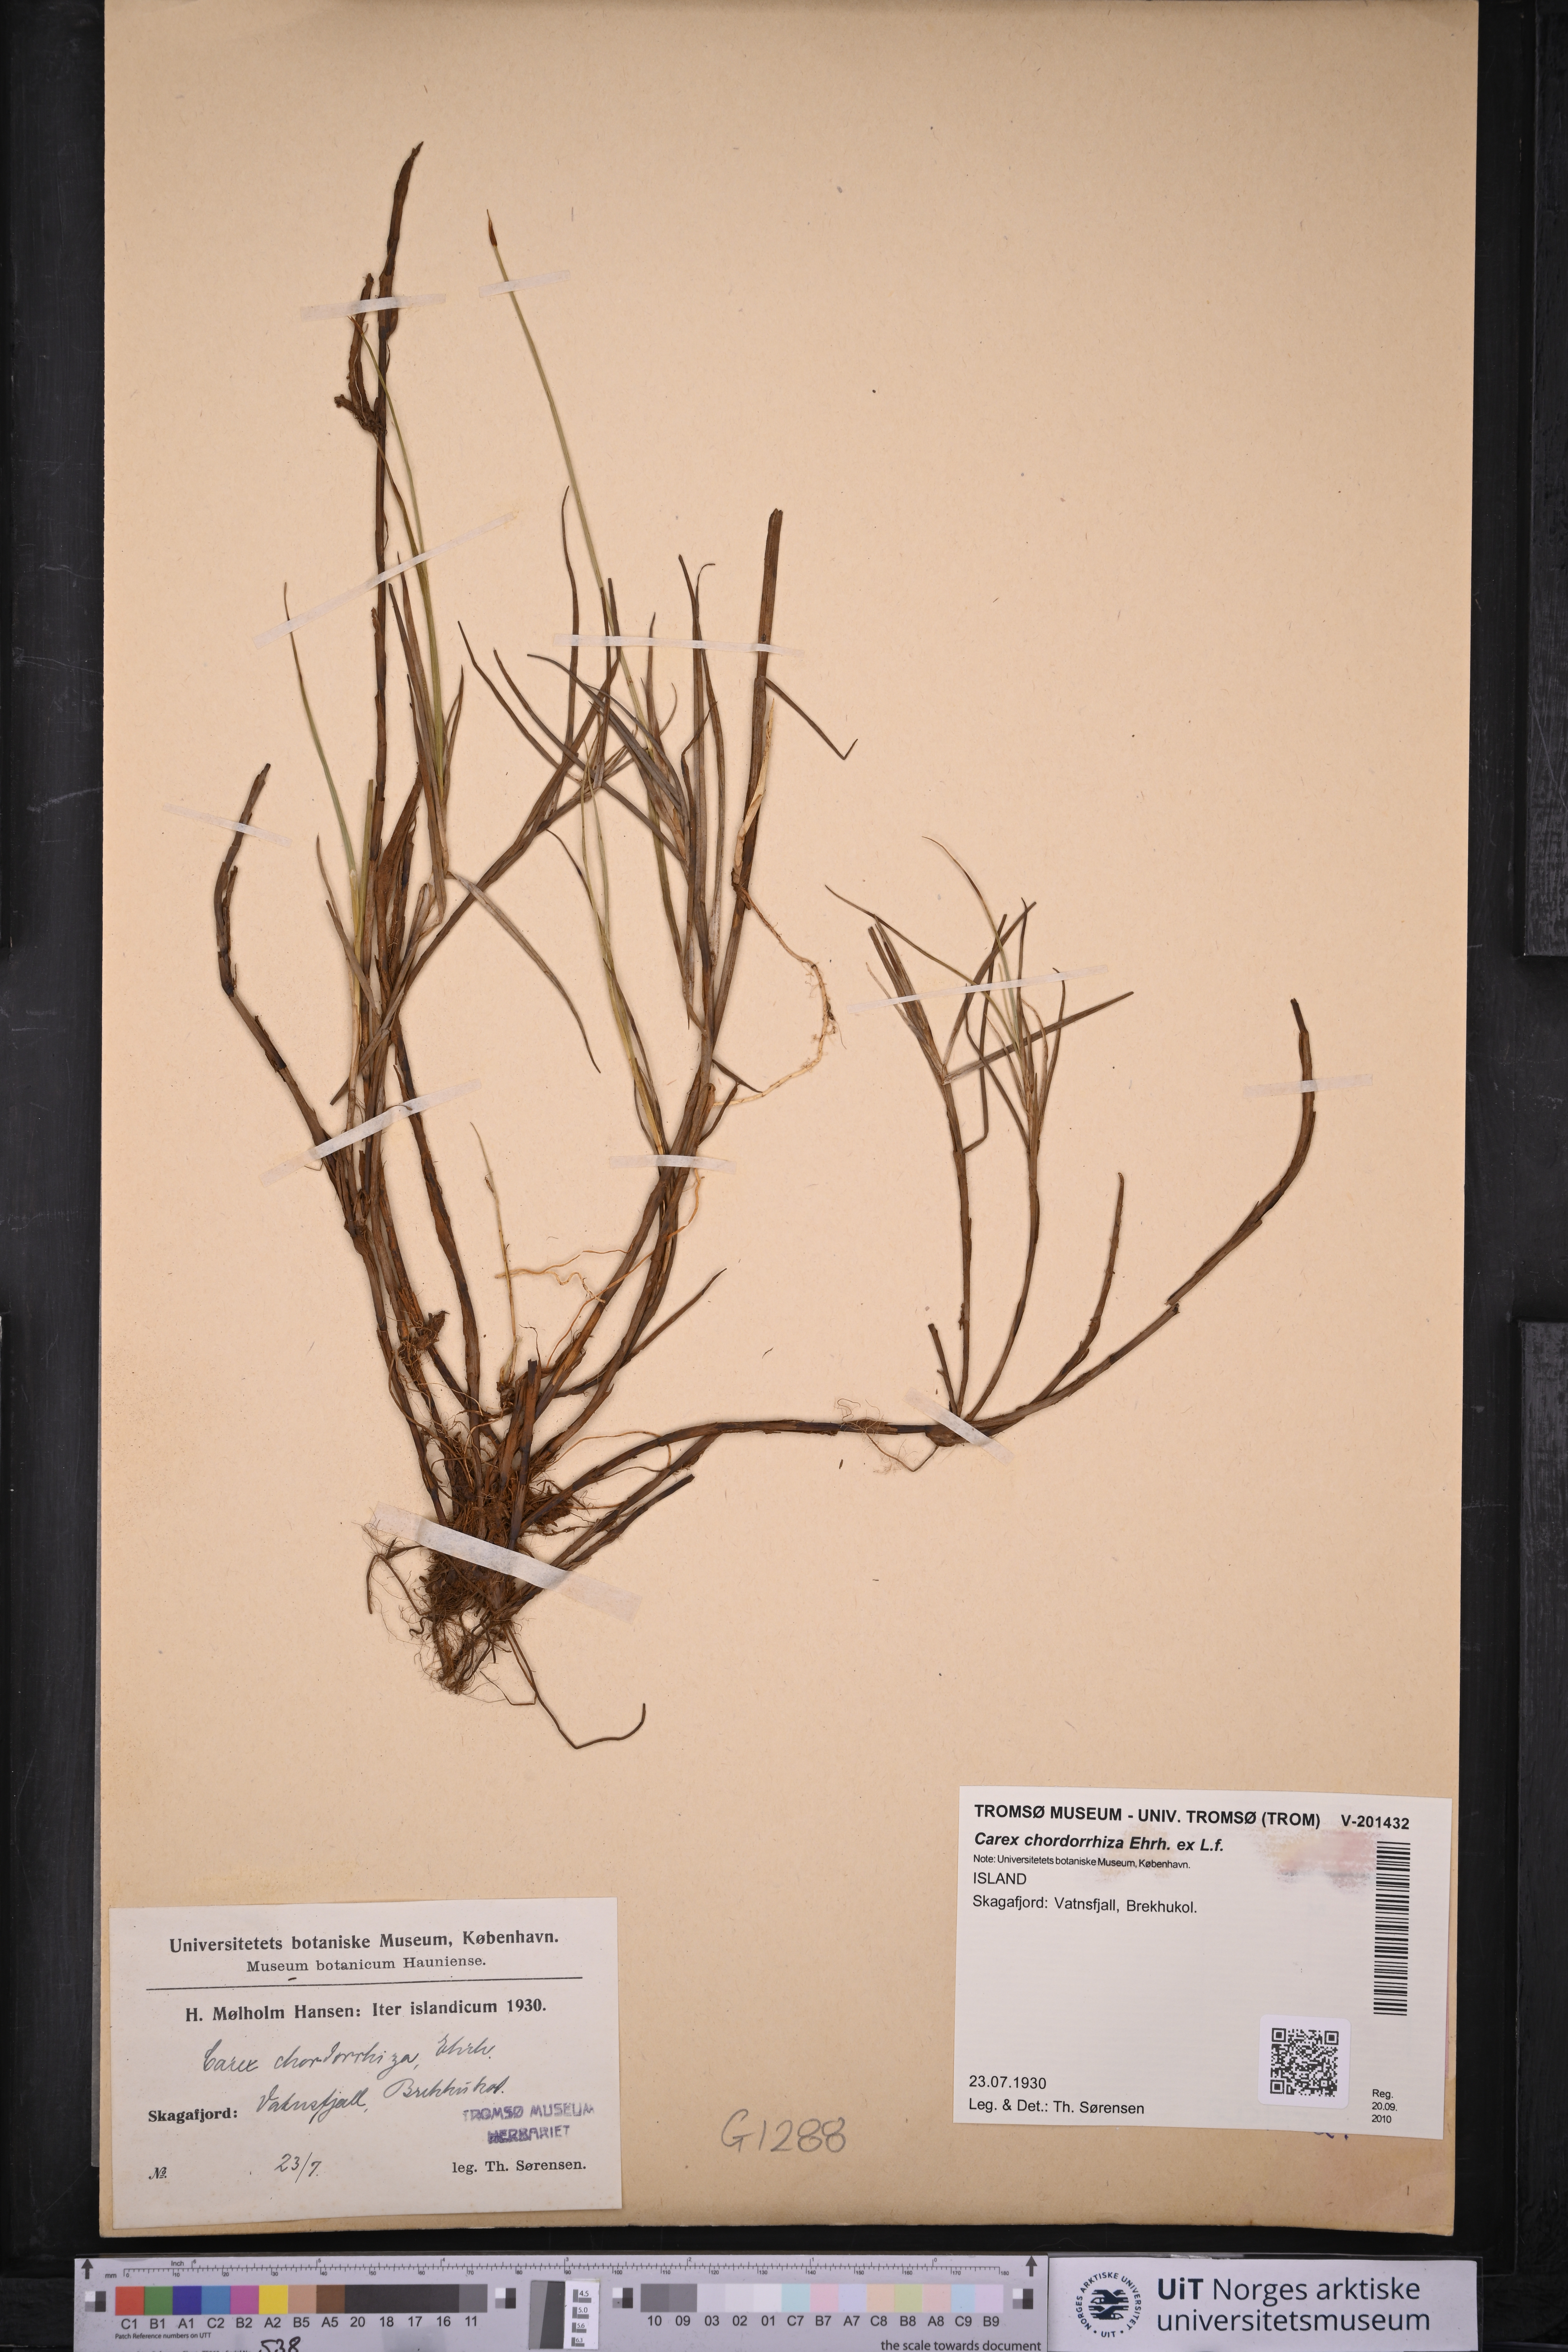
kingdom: Plantae
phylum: Tracheophyta
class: Liliopsida
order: Poales
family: Cyperaceae
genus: Carex
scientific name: Carex chordorrhiza
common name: String sedge
